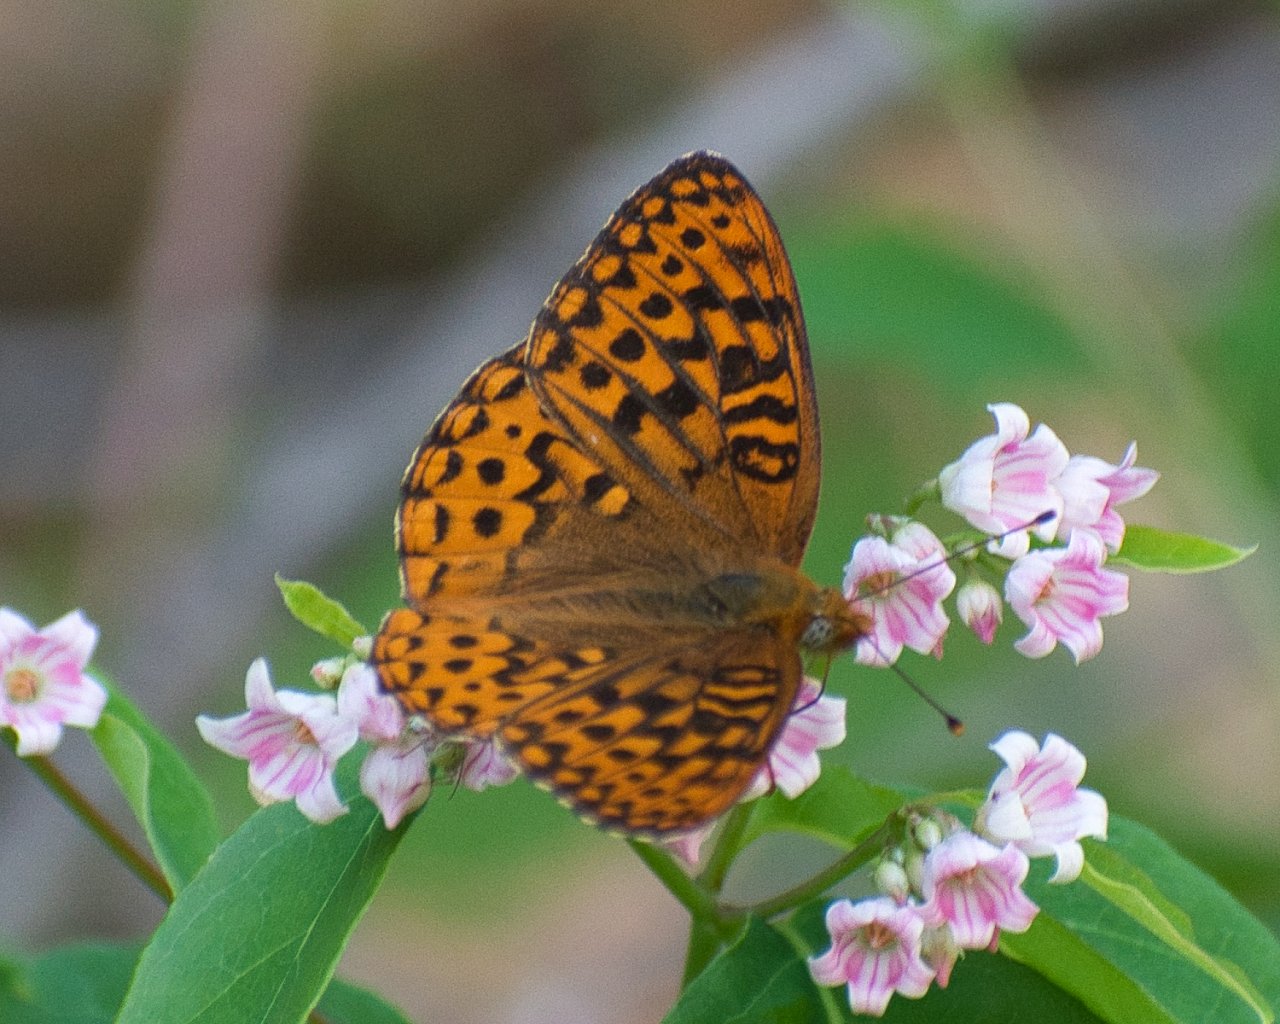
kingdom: Animalia
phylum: Arthropoda
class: Insecta
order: Lepidoptera
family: Nymphalidae
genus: Speyeria
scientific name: Speyeria hydaspe
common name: Hydaspe Fritillary
